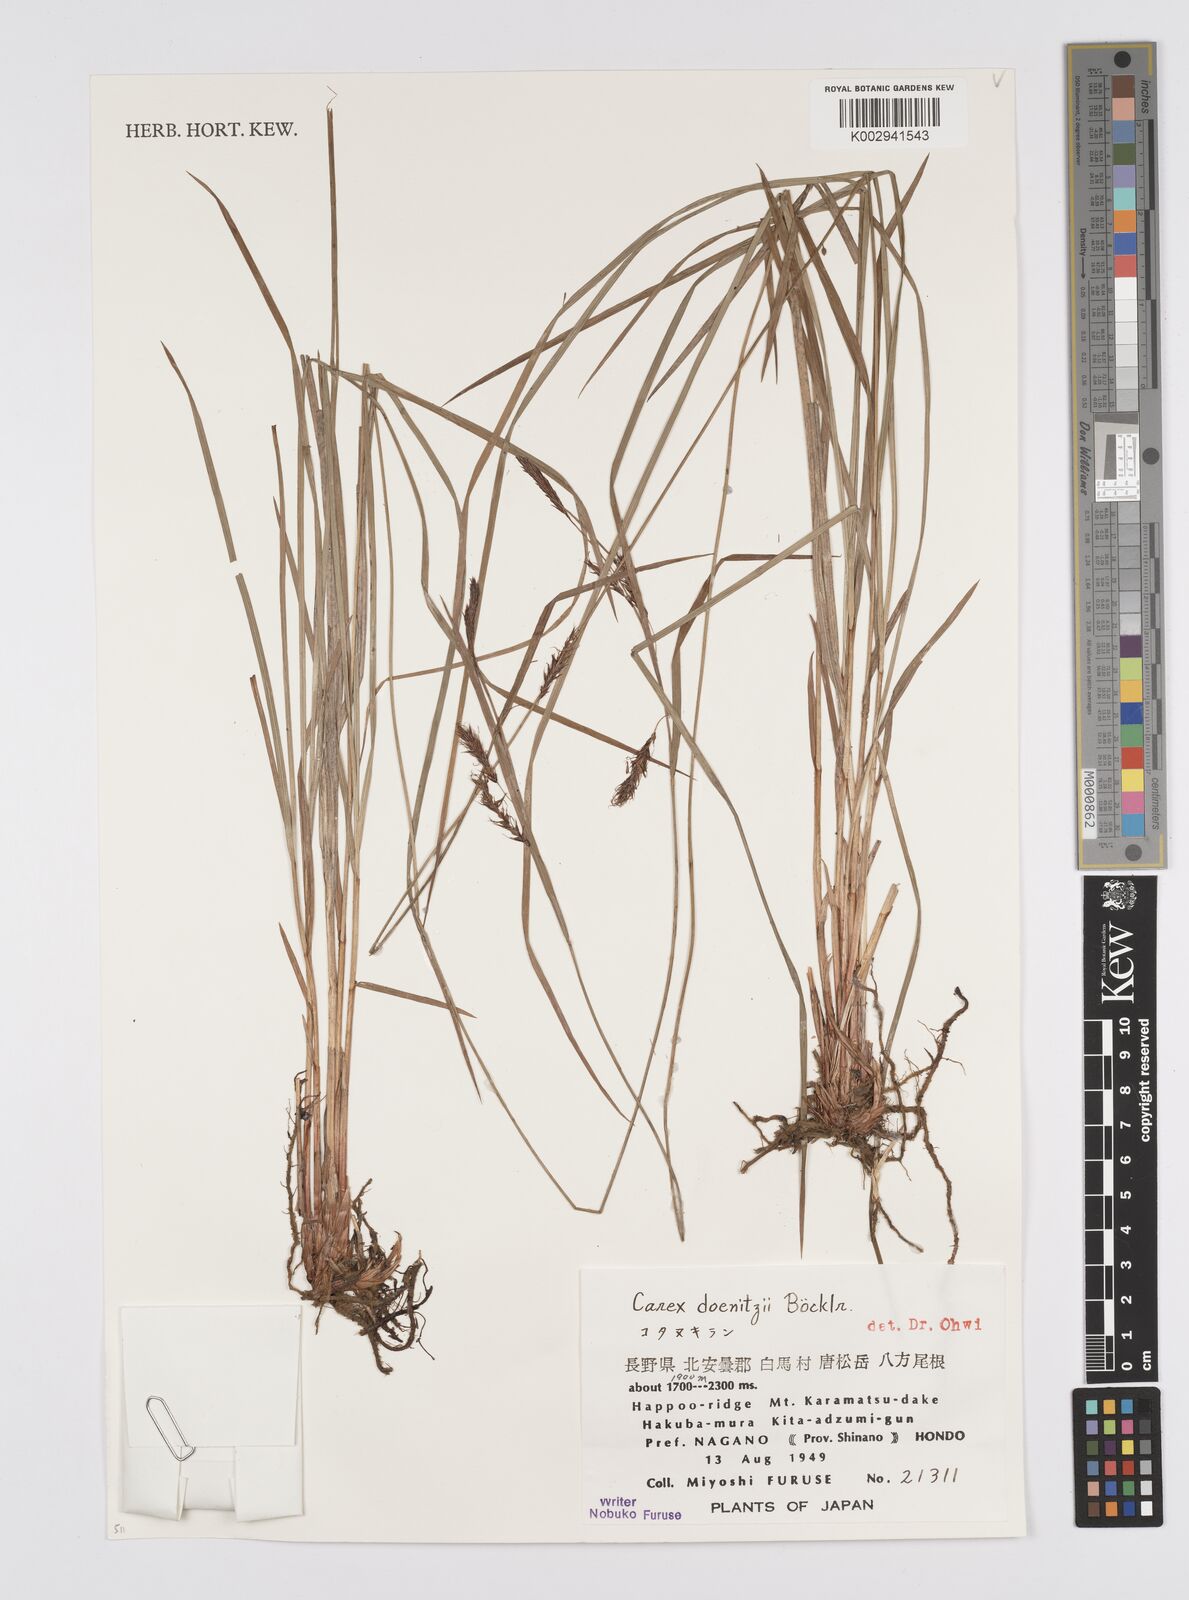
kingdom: Plantae
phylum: Tracheophyta
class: Liliopsida
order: Poales
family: Cyperaceae
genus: Carex
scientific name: Carex doenitzii
